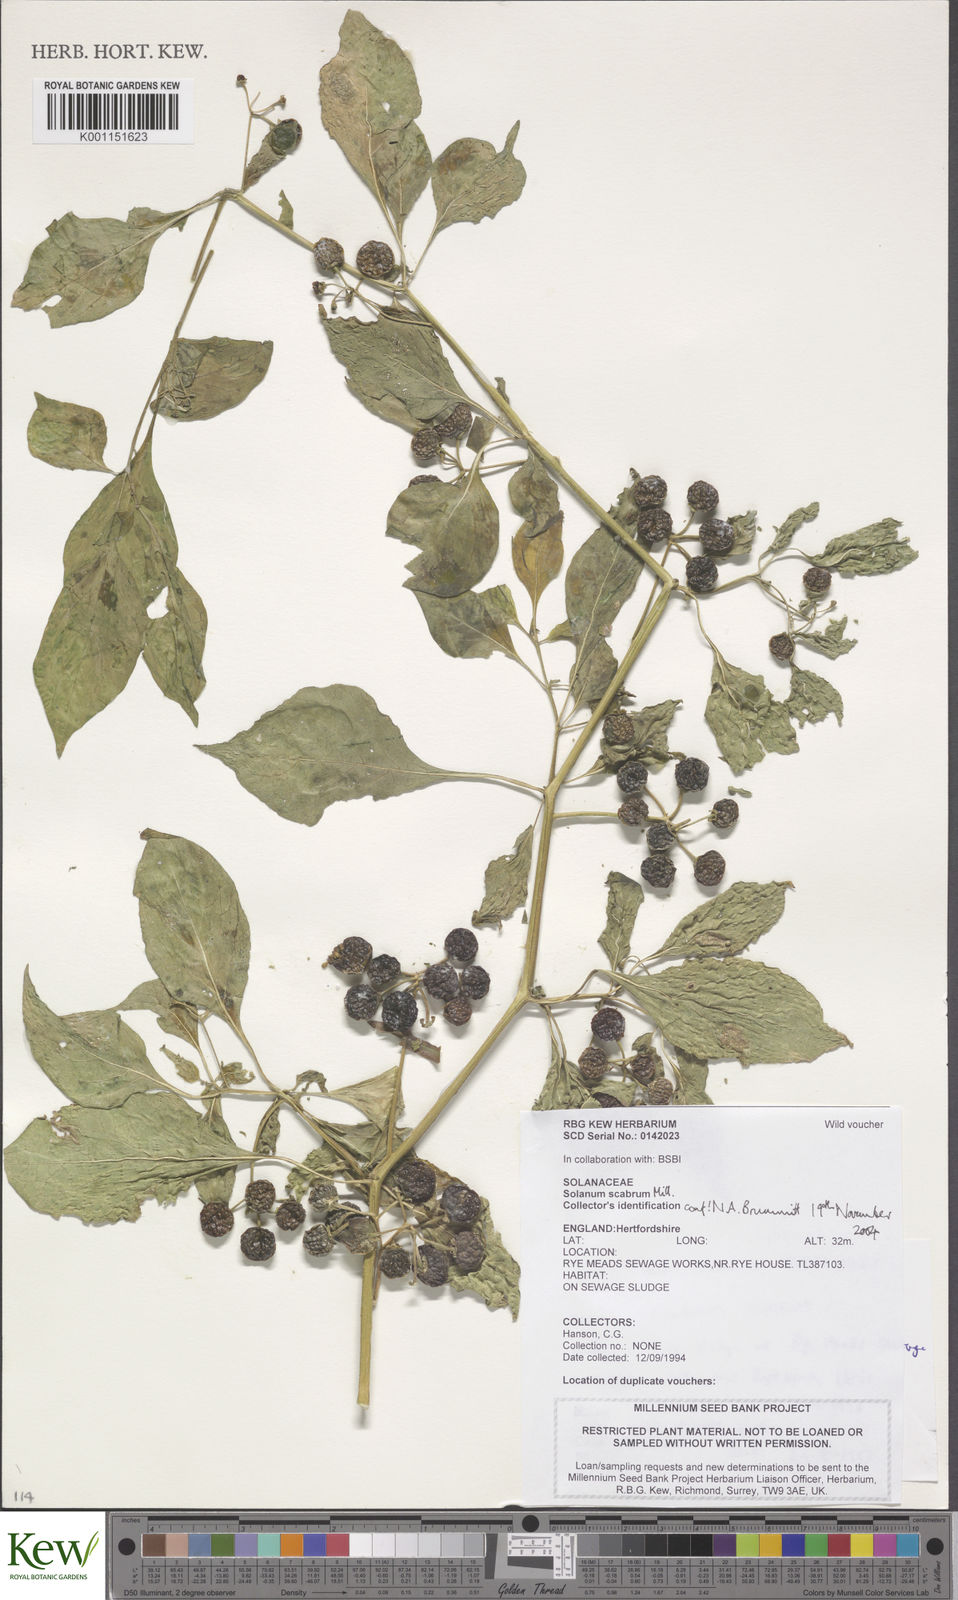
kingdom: Plantae
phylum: Tracheophyta
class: Magnoliopsida
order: Solanales
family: Solanaceae
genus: Solanum
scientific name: Solanum scabrum
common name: Garden-huckleberry
